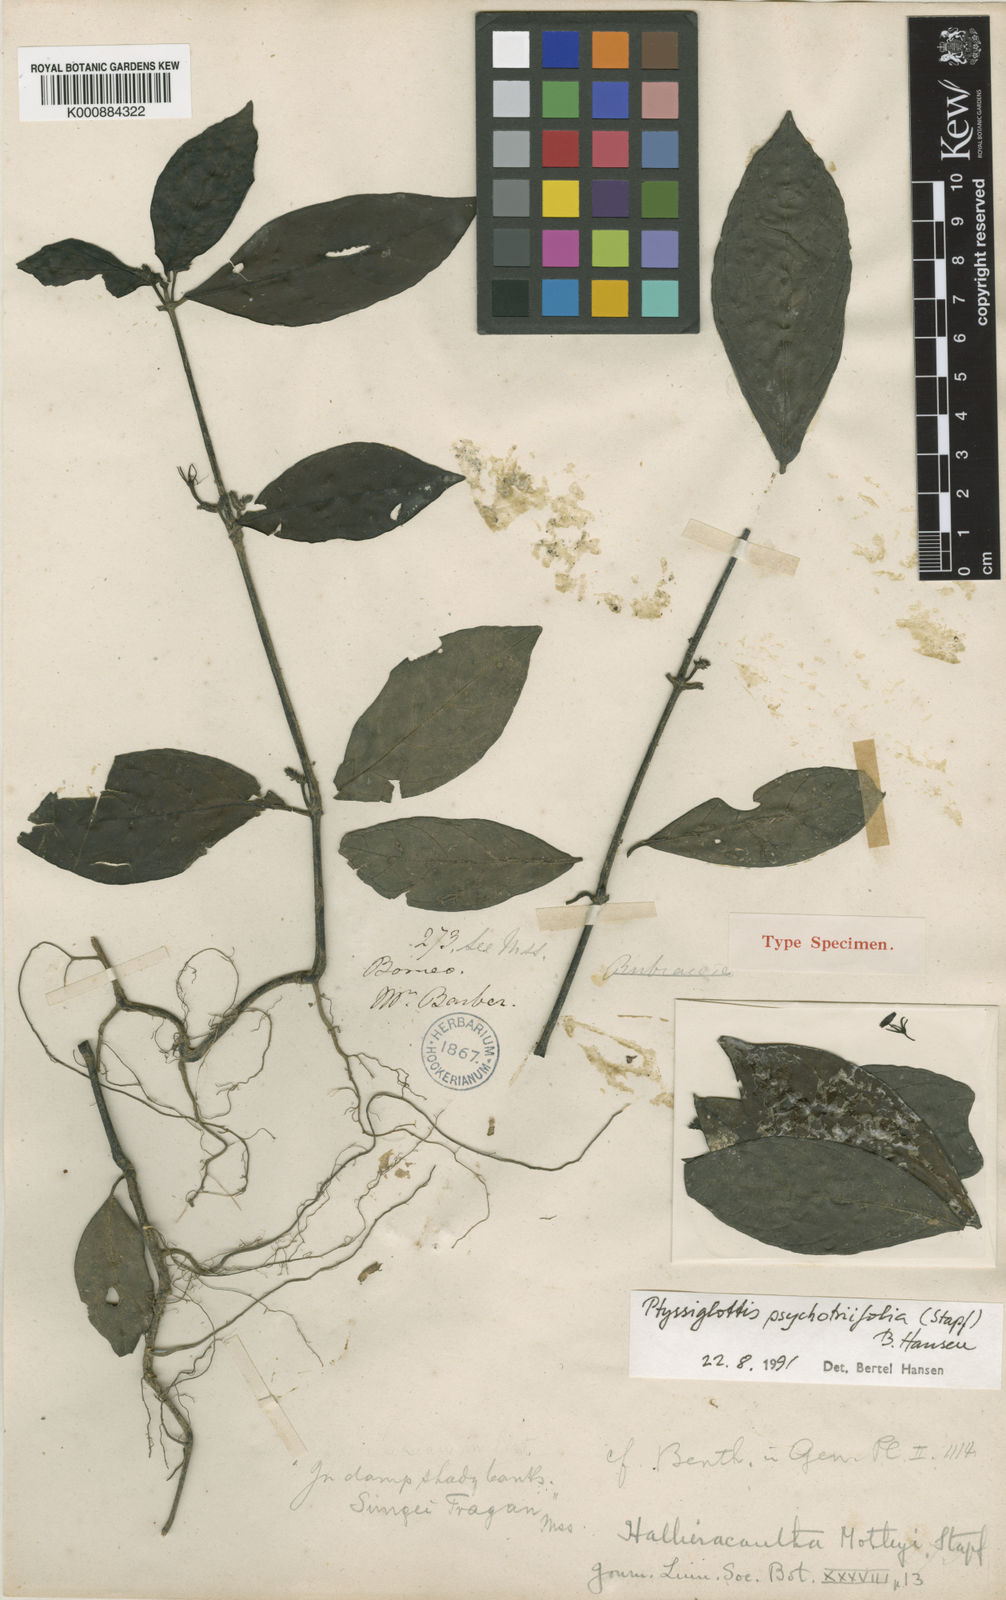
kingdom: Plantae
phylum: Tracheophyta
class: Magnoliopsida
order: Lamiales
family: Acanthaceae
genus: Ptyssiglottis
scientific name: Ptyssiglottis psychotriifolia
